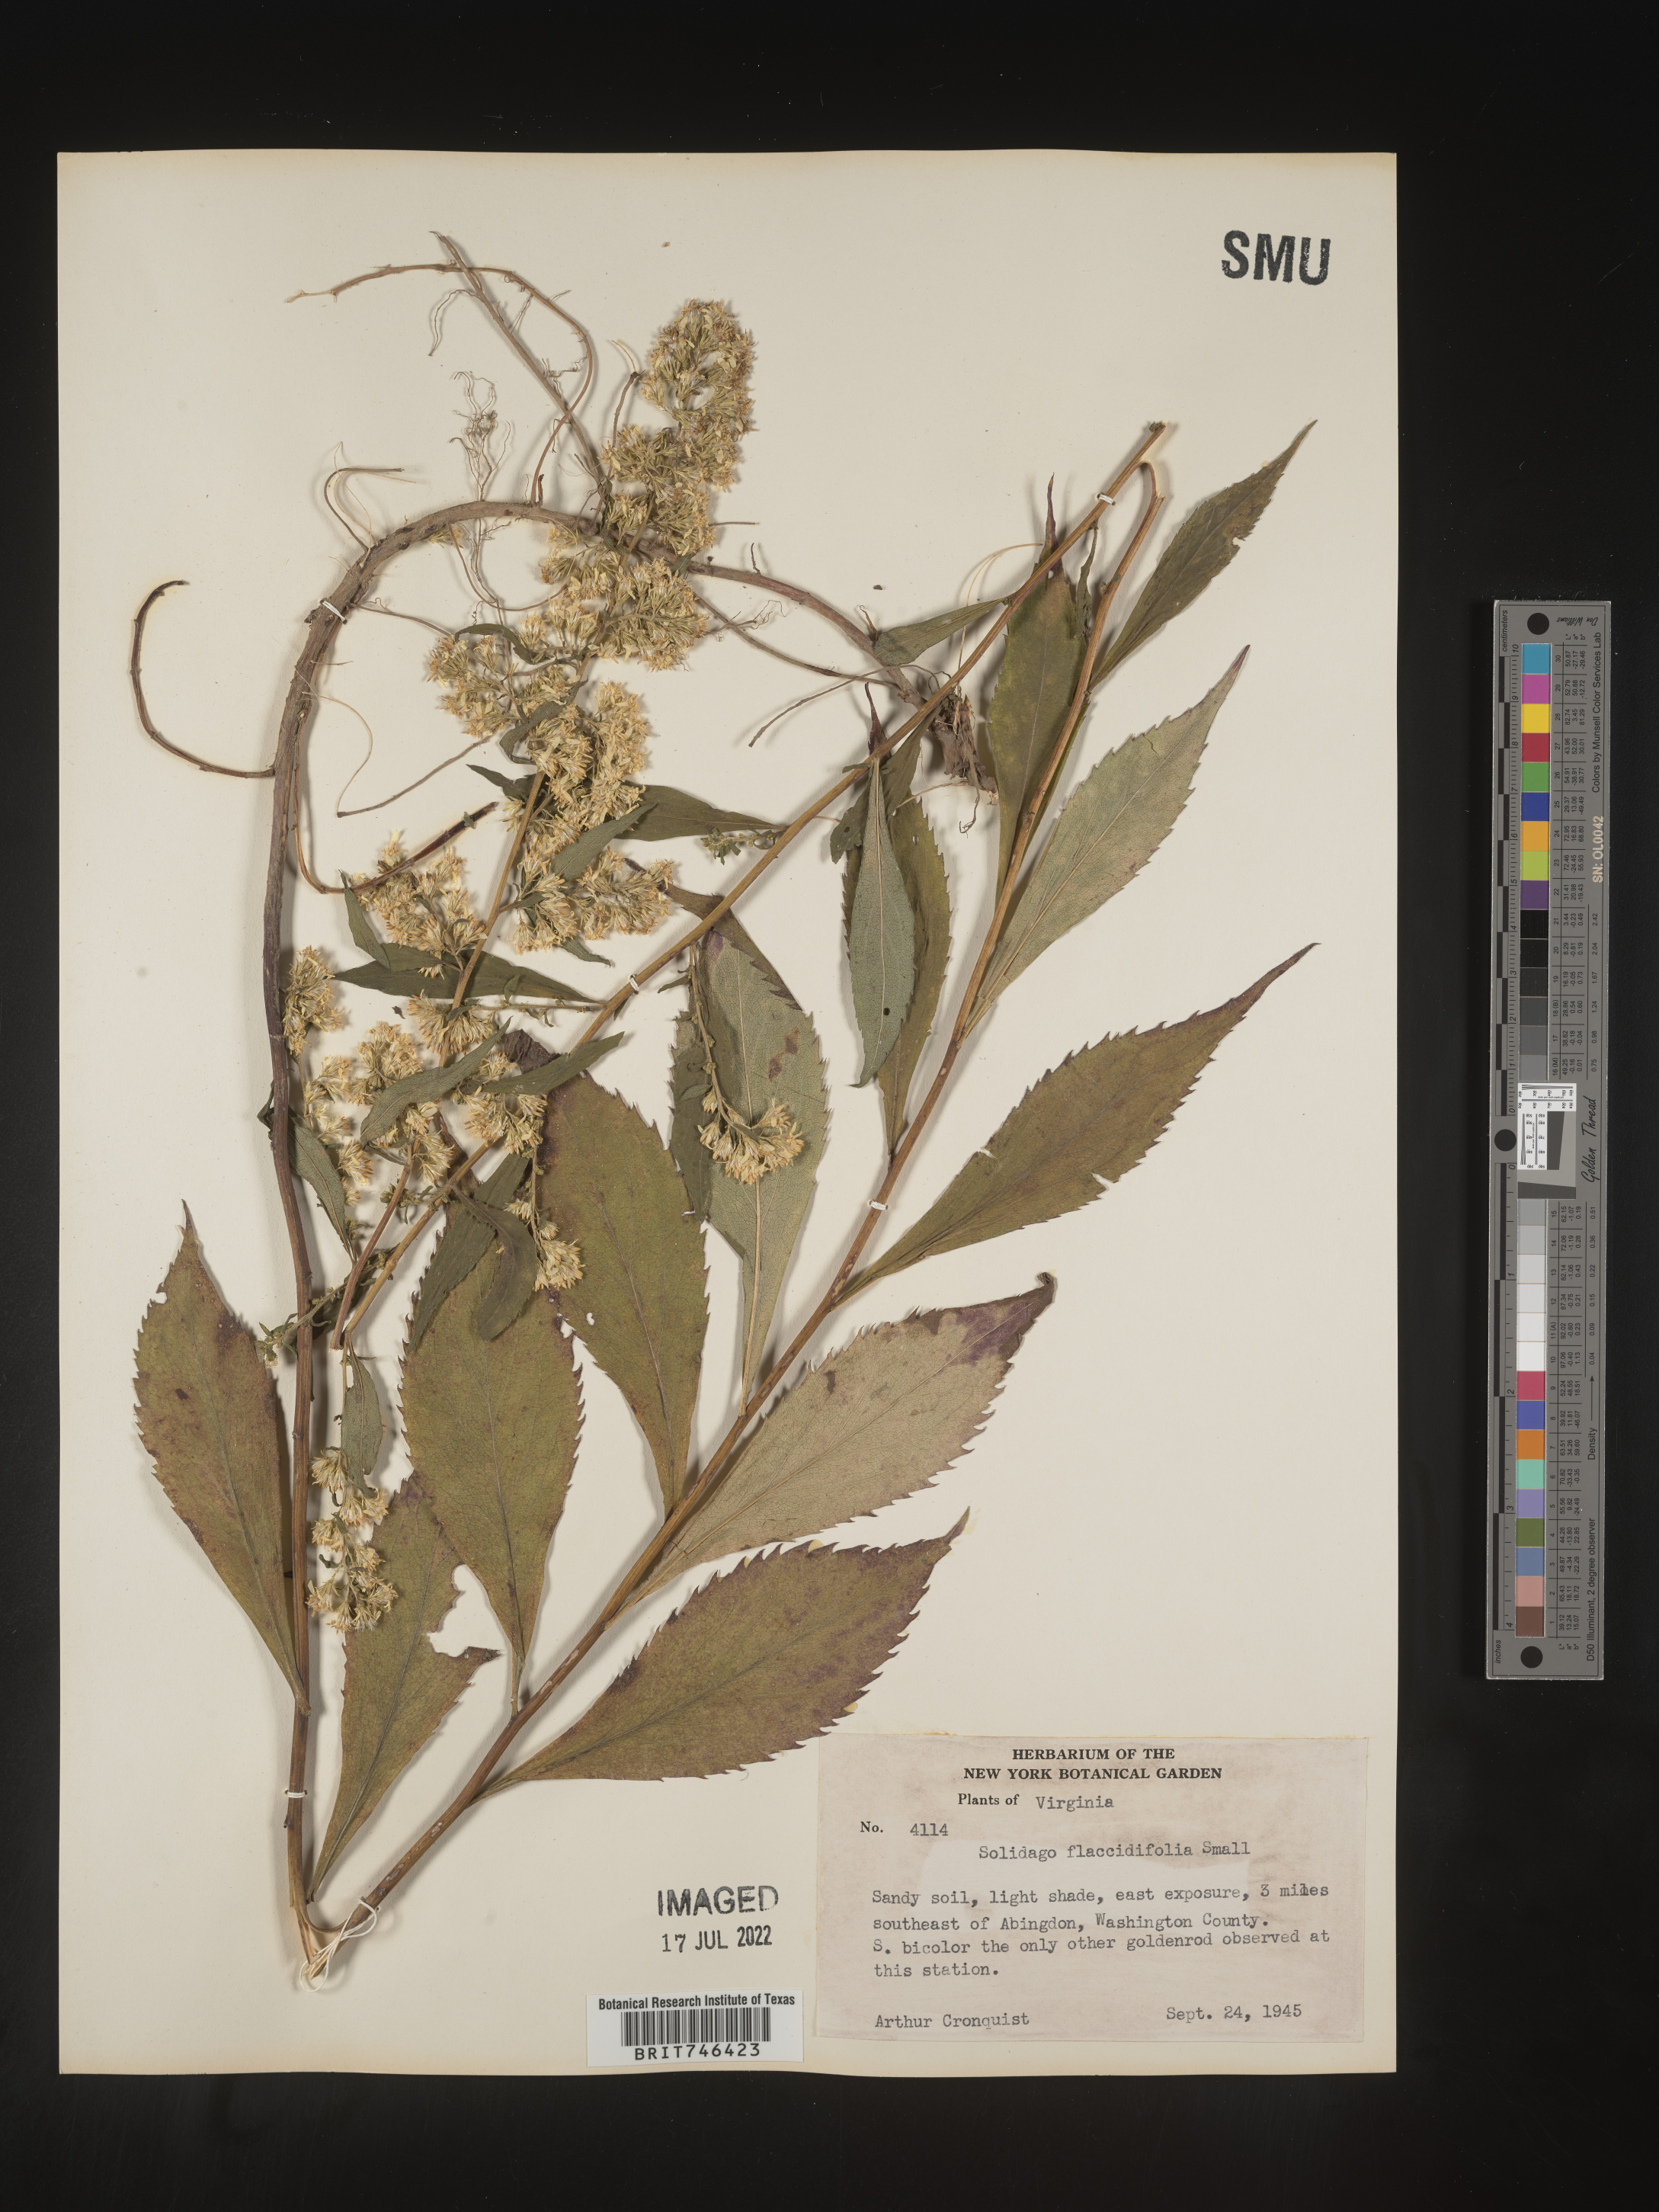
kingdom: Plantae
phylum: Tracheophyta
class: Magnoliopsida
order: Asterales
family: Asteraceae
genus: Solidago
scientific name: Solidago flaccidifolia
